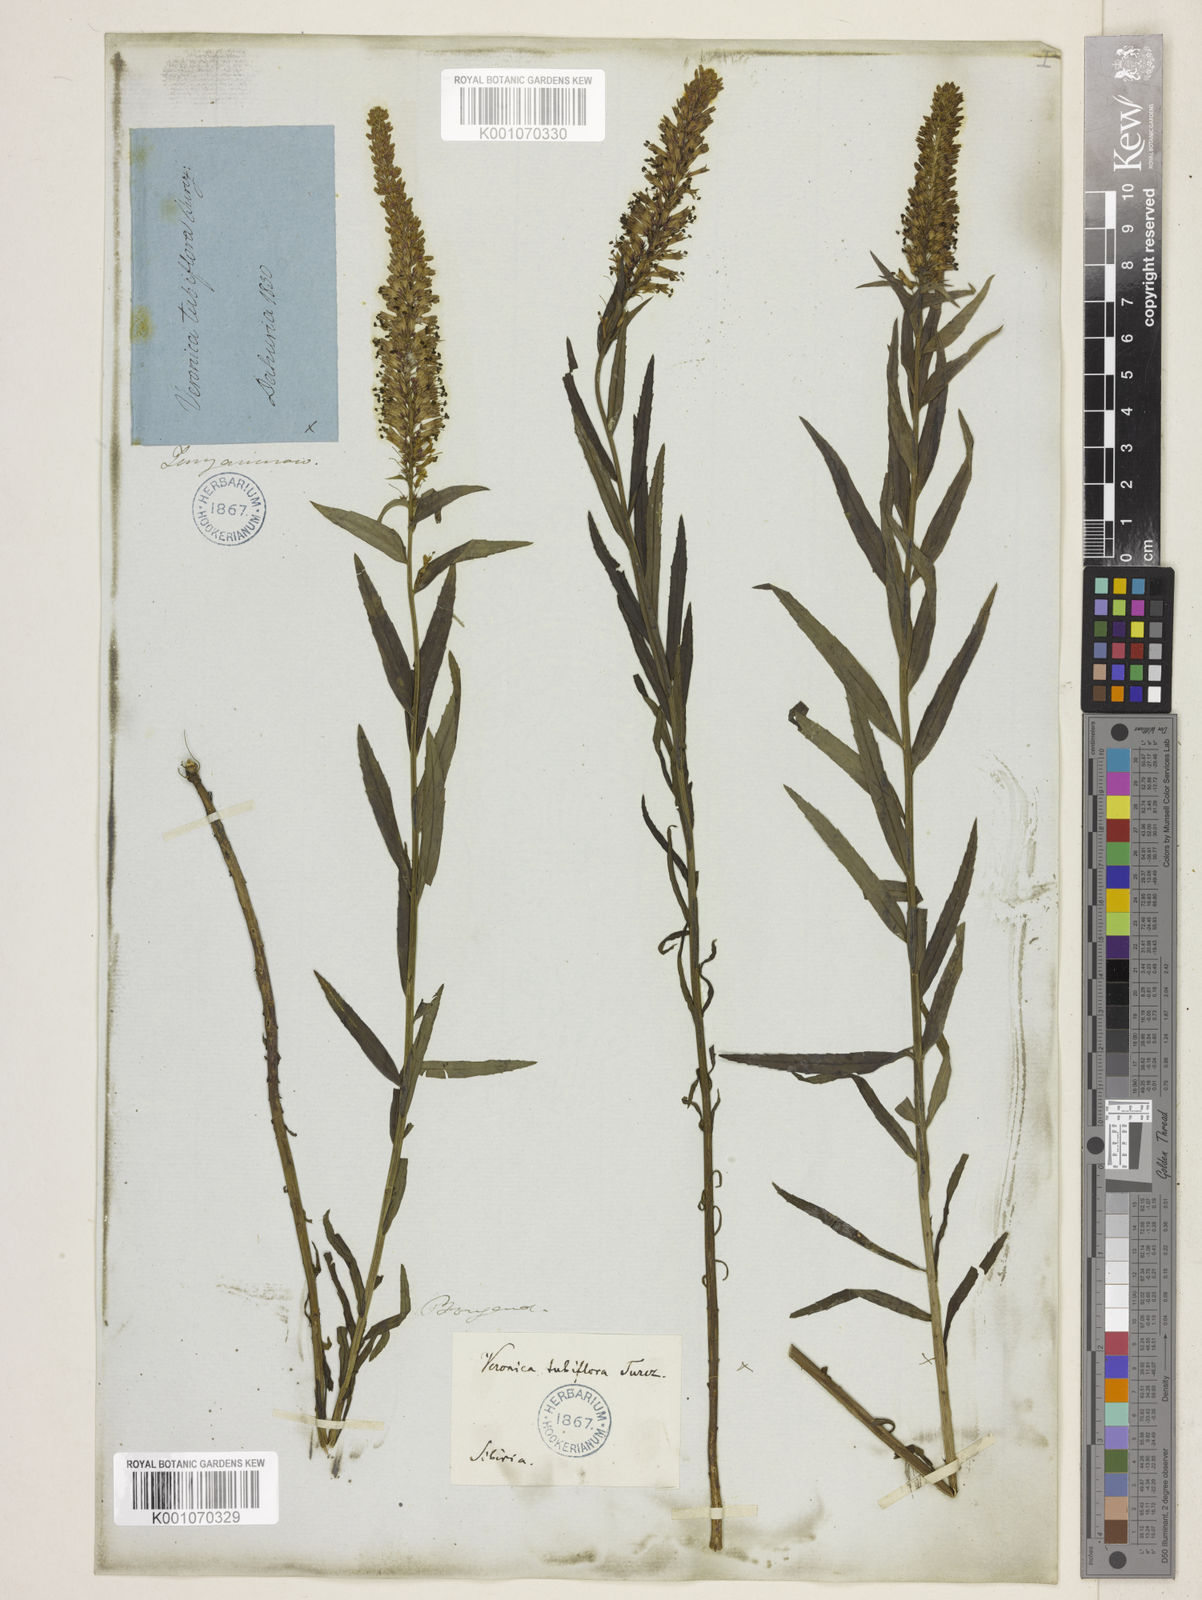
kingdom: Plantae
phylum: Tracheophyta
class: Magnoliopsida
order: Lamiales
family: Plantaginaceae
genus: Veronicastrum
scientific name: Veronicastrum tubiflorum
